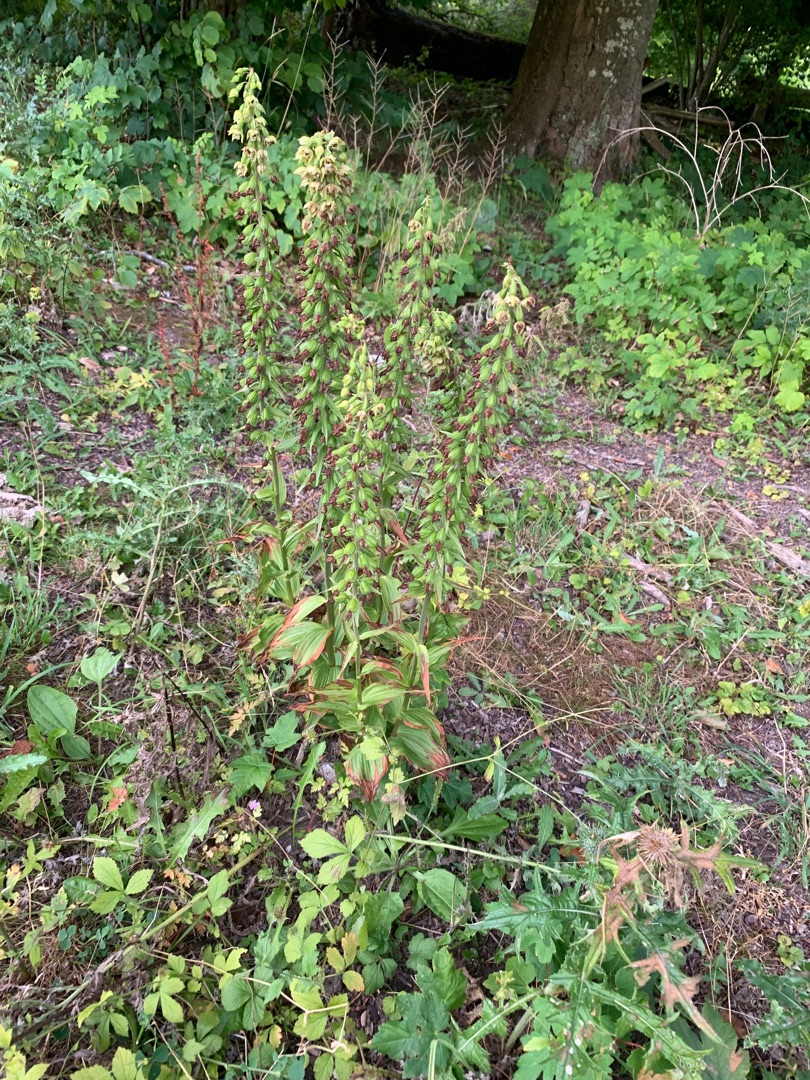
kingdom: Plantae
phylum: Tracheophyta
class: Liliopsida
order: Asparagales
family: Orchidaceae
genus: Epipactis
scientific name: Epipactis helleborine
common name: Skov-hullæbe
